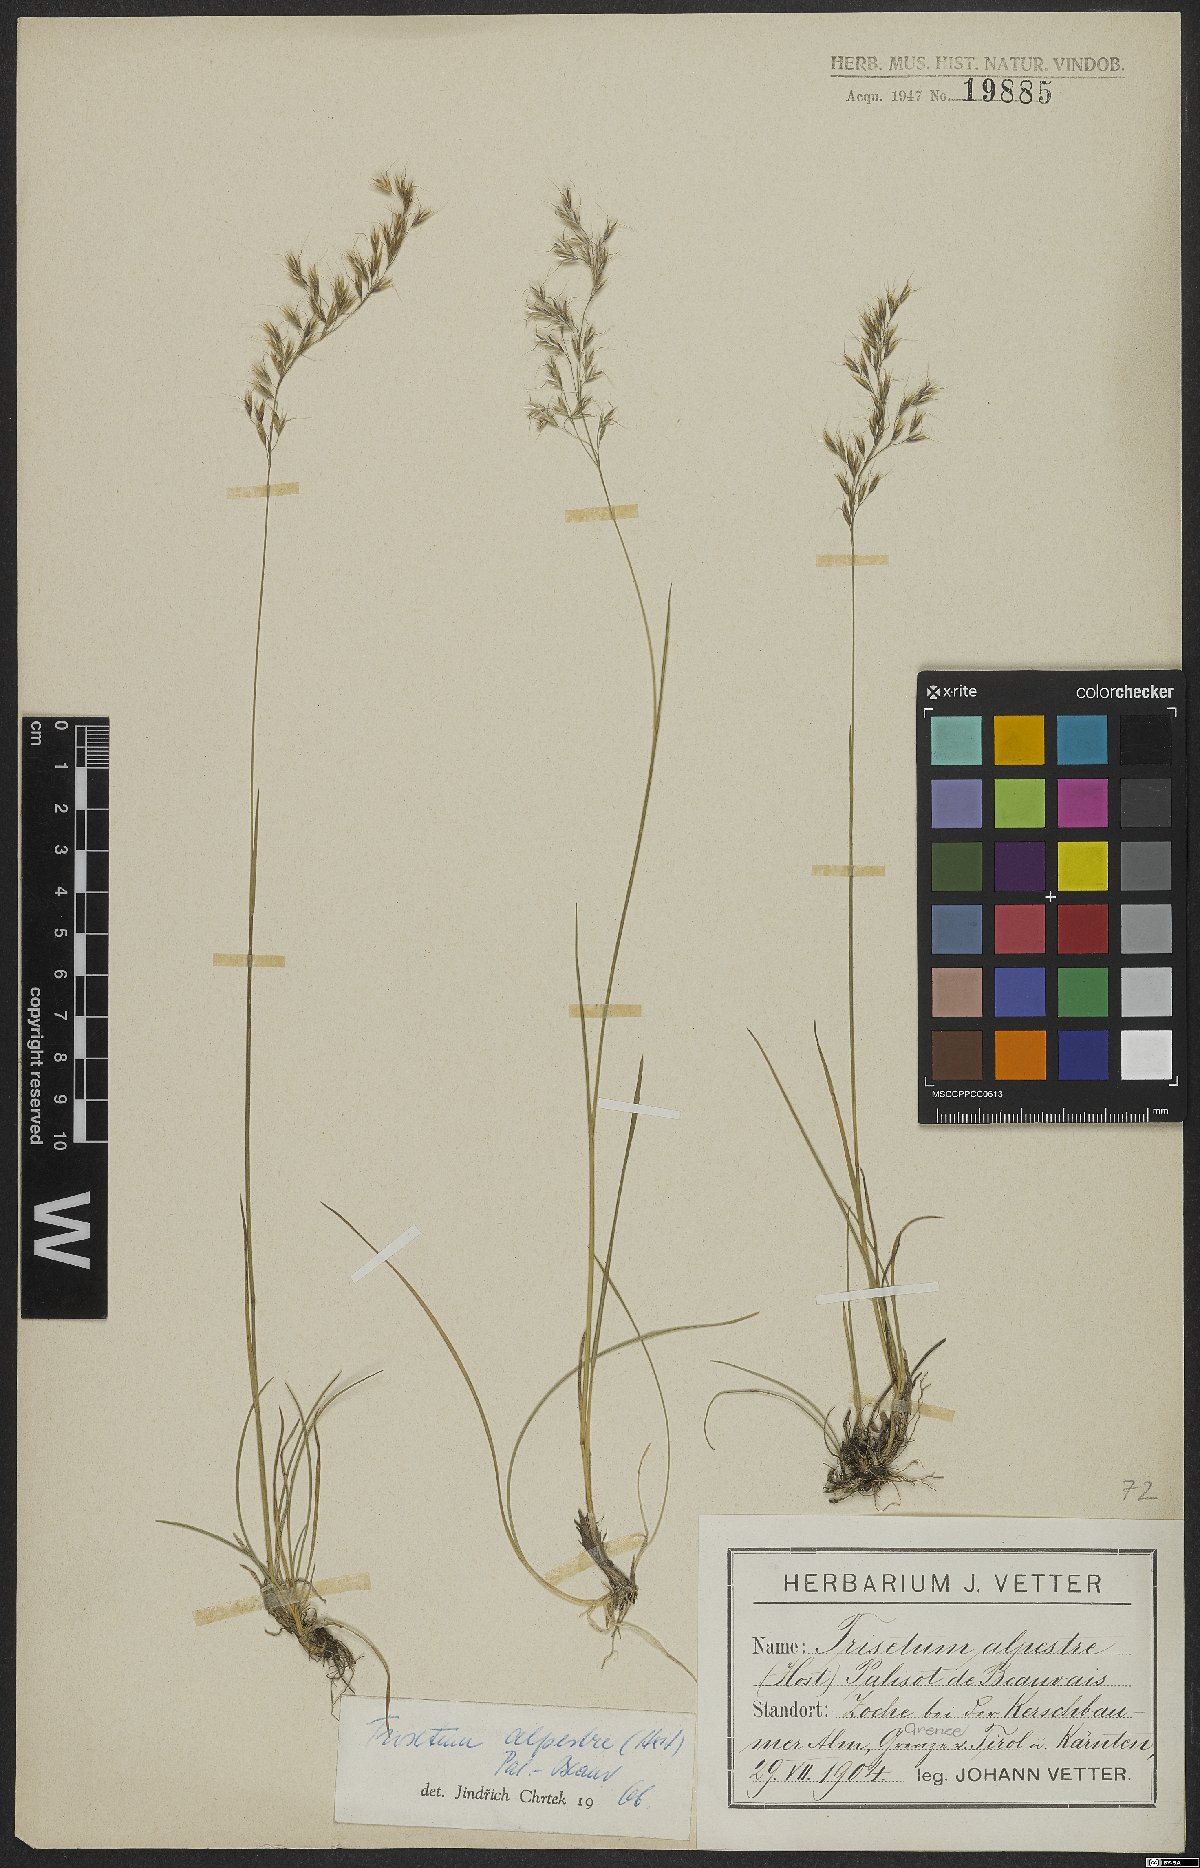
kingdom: Plantae
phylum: Tracheophyta
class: Liliopsida
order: Poales
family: Poaceae
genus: Trisetum
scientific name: Trisetum alpestre
